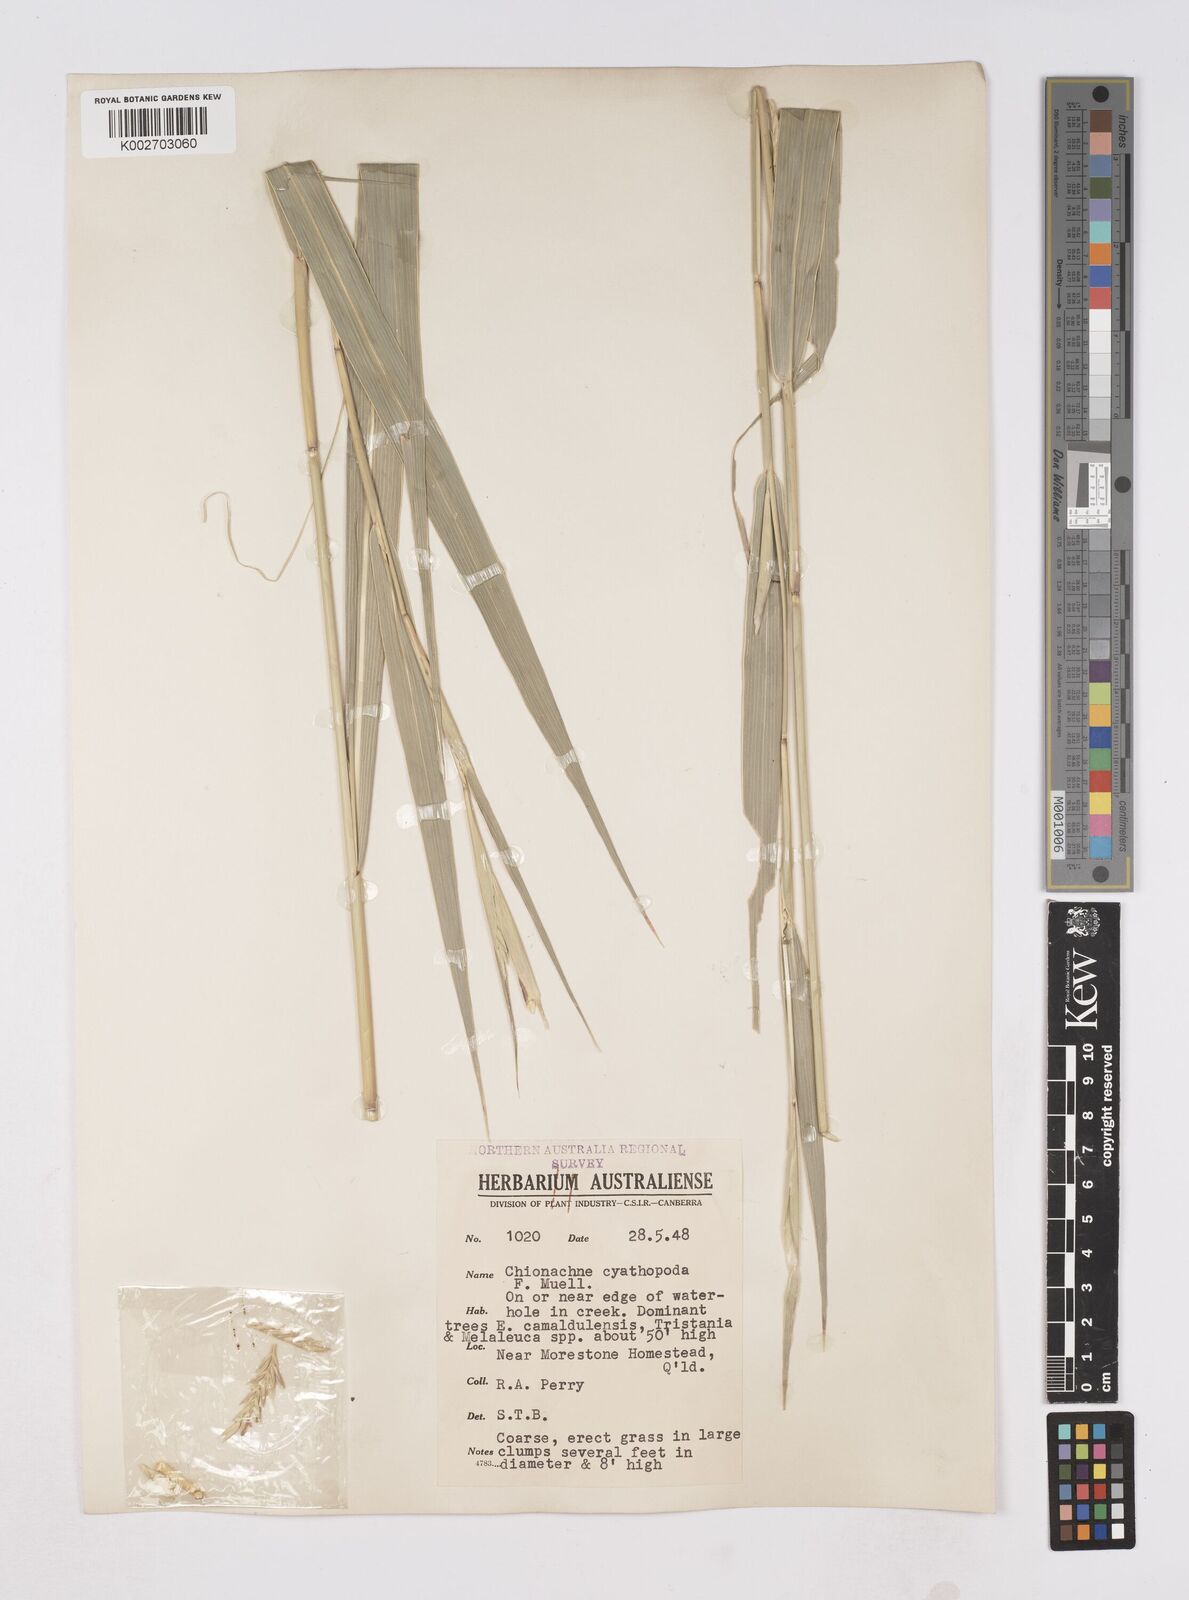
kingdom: Plantae
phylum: Tracheophyta
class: Liliopsida
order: Poales
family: Poaceae
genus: Polytoca
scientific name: Polytoca cyathopoda
